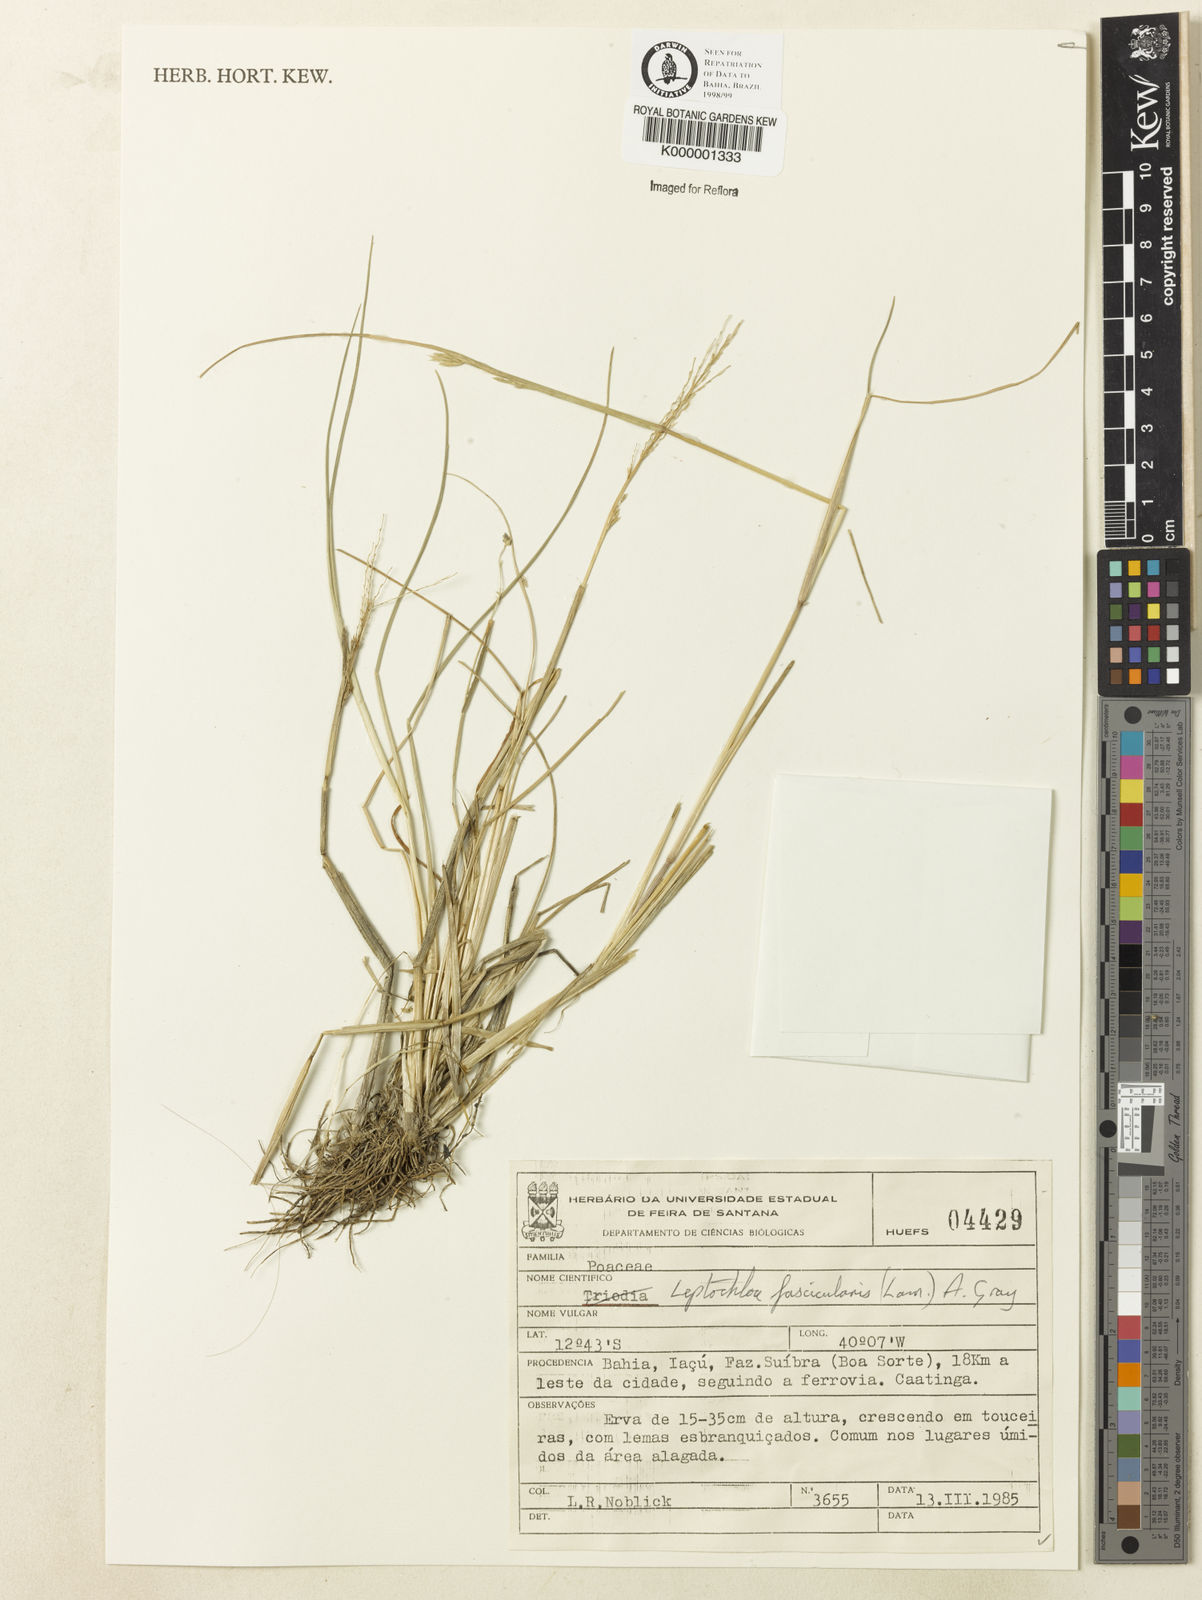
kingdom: Plantae
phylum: Tracheophyta
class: Liliopsida
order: Poales
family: Poaceae
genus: Diplachne
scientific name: Diplachne fusca
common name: Brown beetle grass
